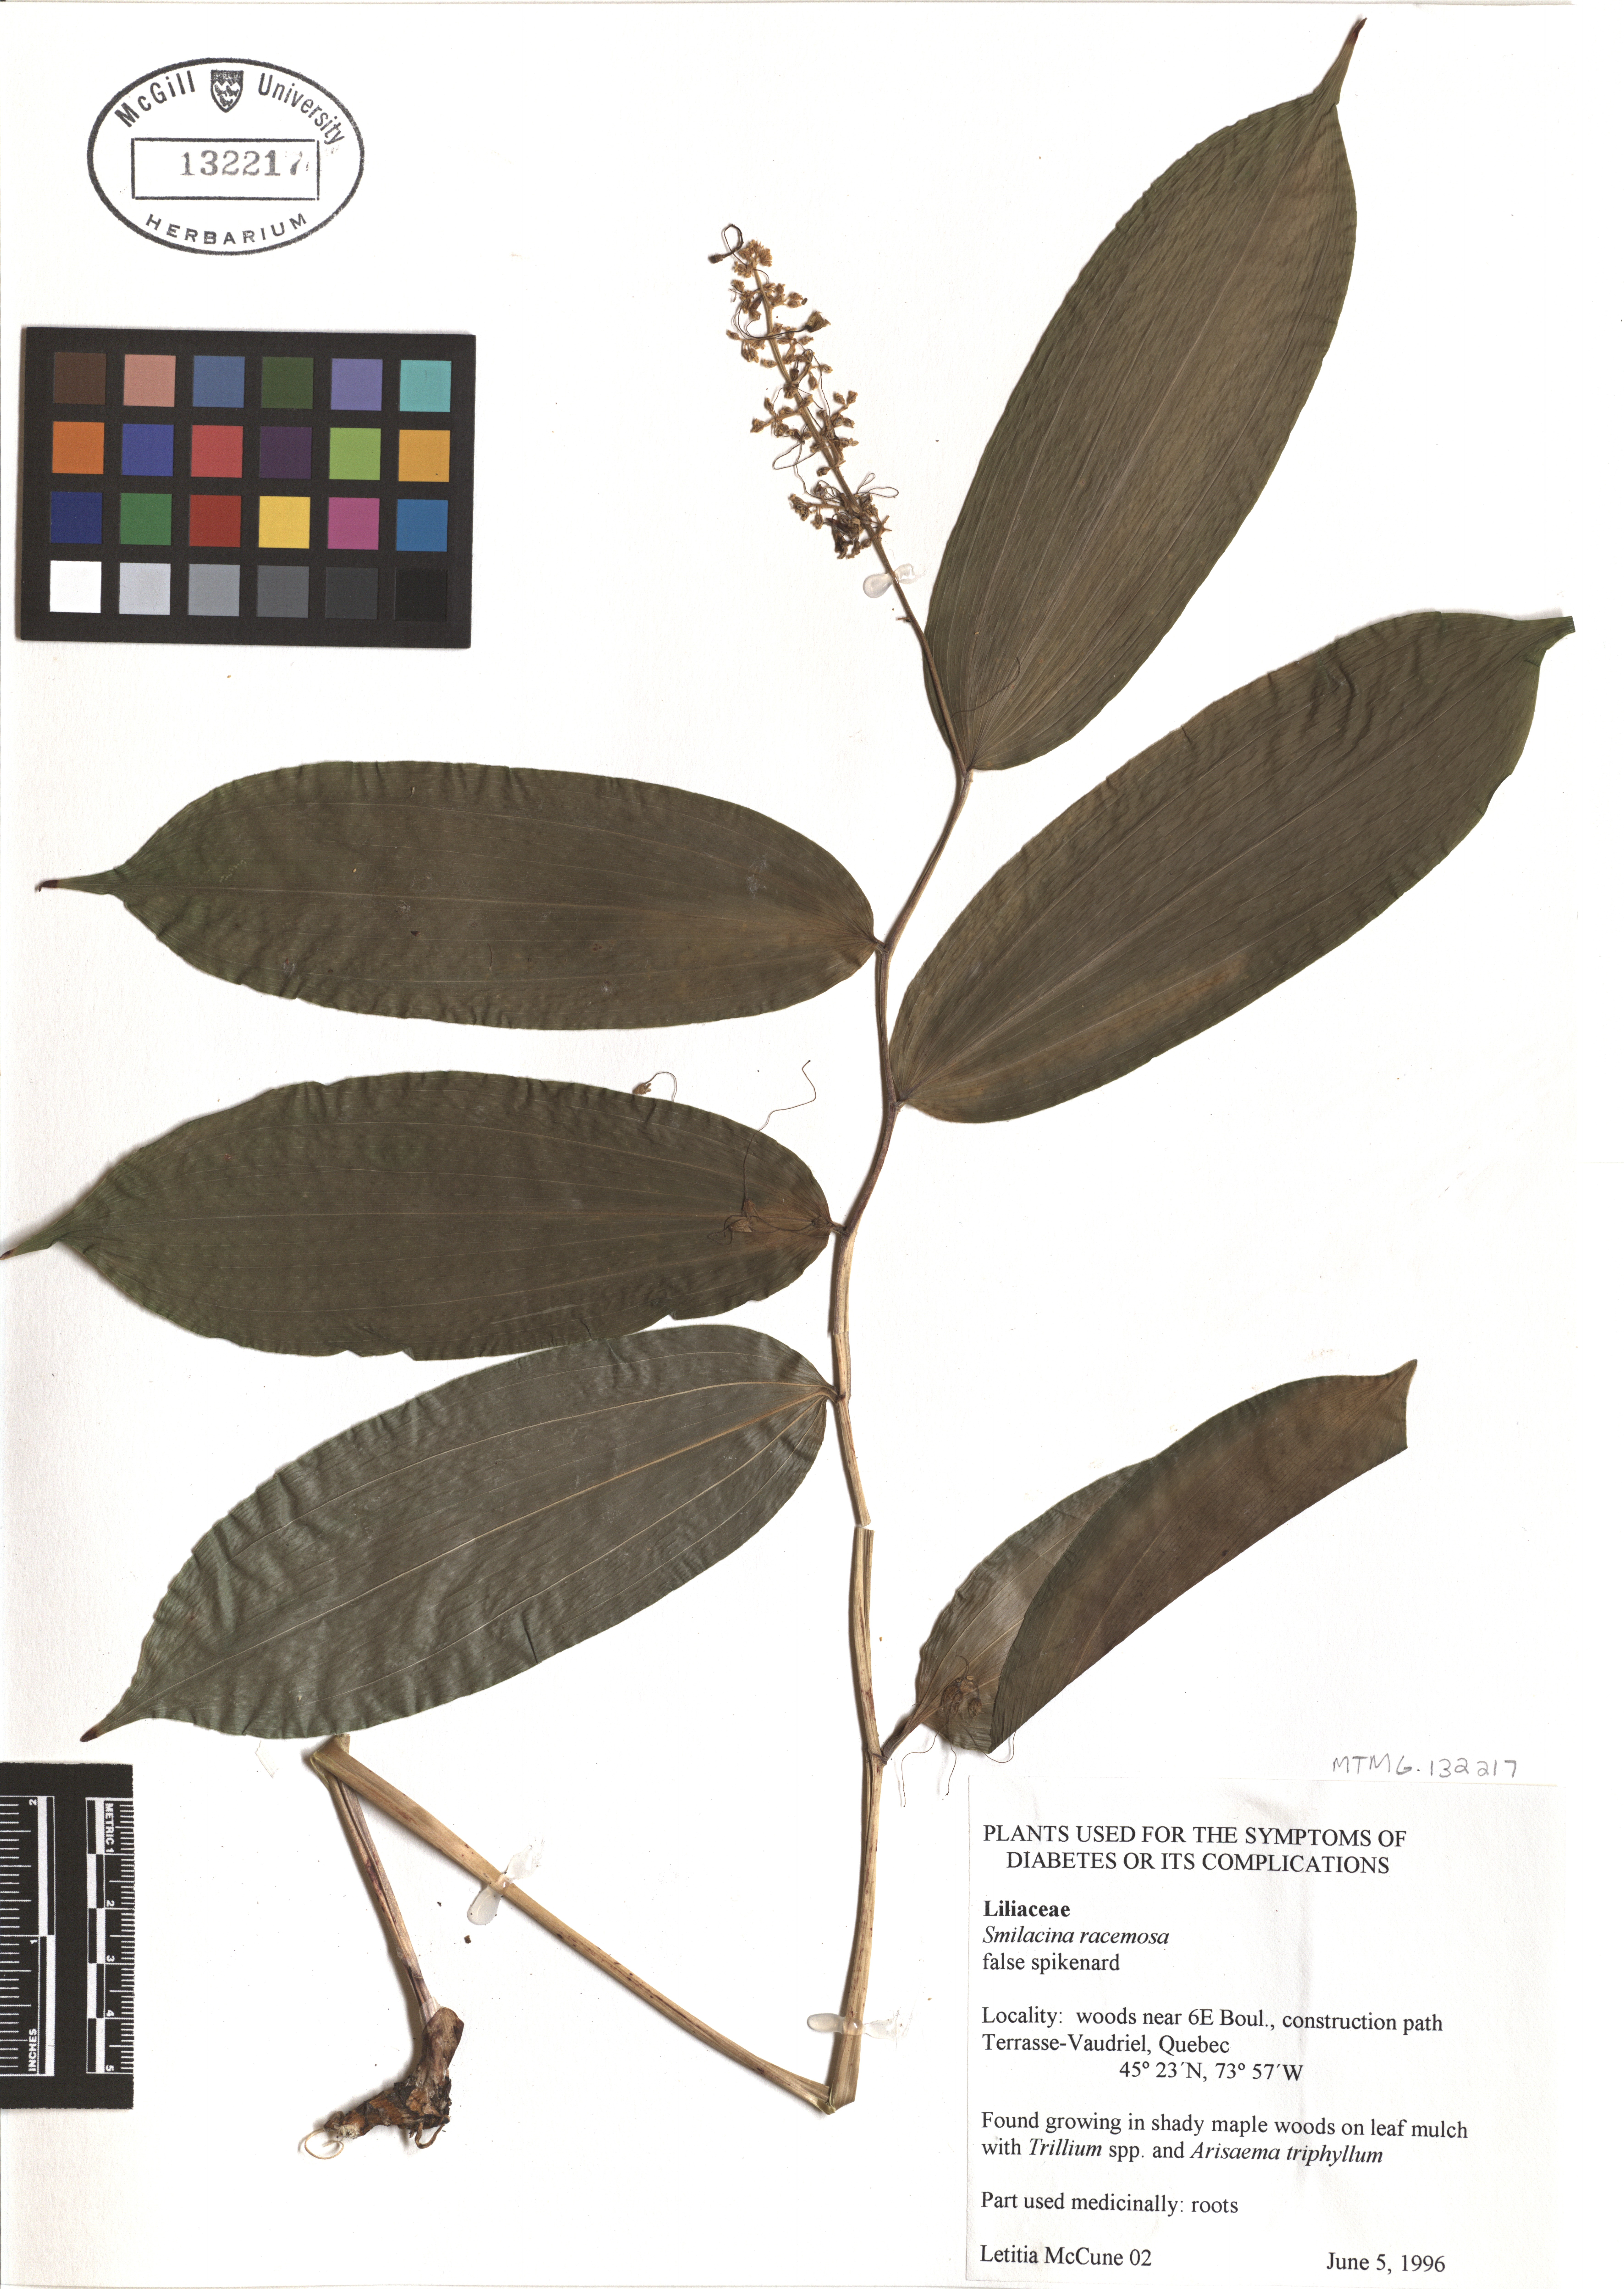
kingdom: Plantae
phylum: Tracheophyta
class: Liliopsida
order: Asparagales
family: Asparagaceae
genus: Maianthemum
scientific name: Maianthemum racemosum
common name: False spikenard
